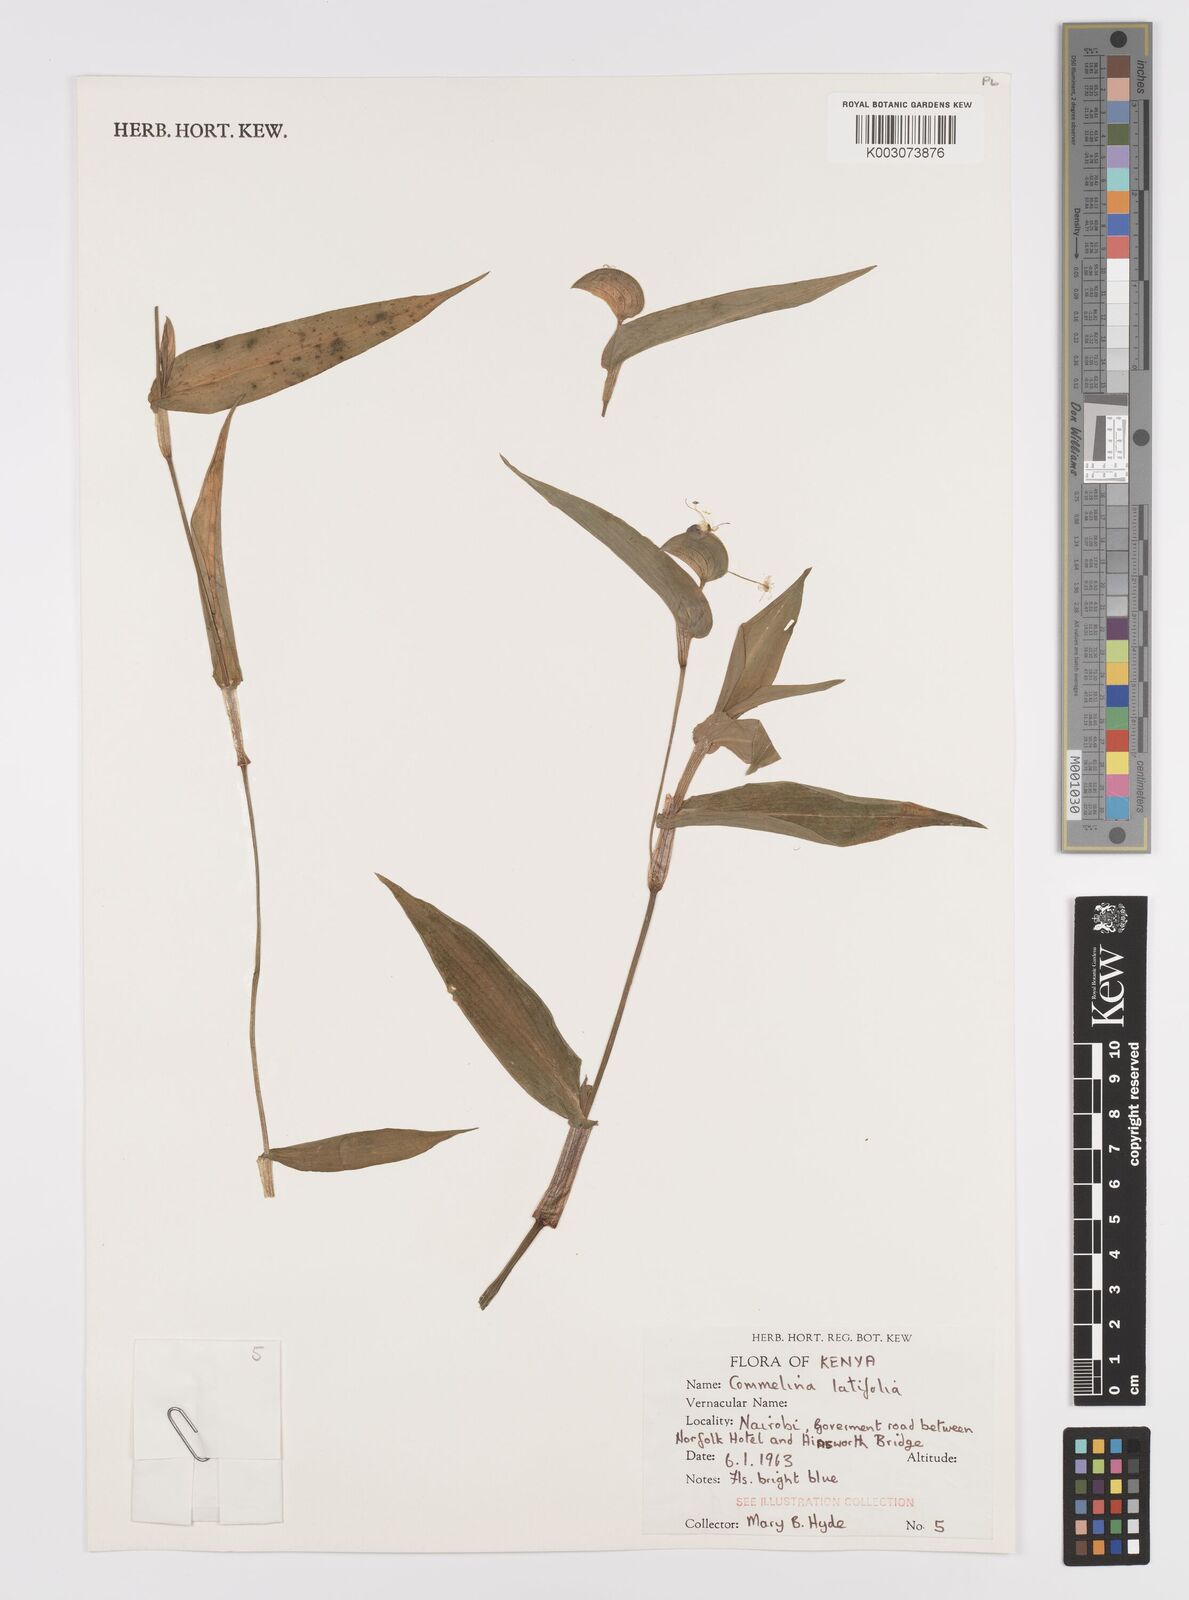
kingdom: Plantae
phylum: Tracheophyta
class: Liliopsida
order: Commelinales
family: Commelinaceae
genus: Commelina
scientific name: Commelina latifolia
